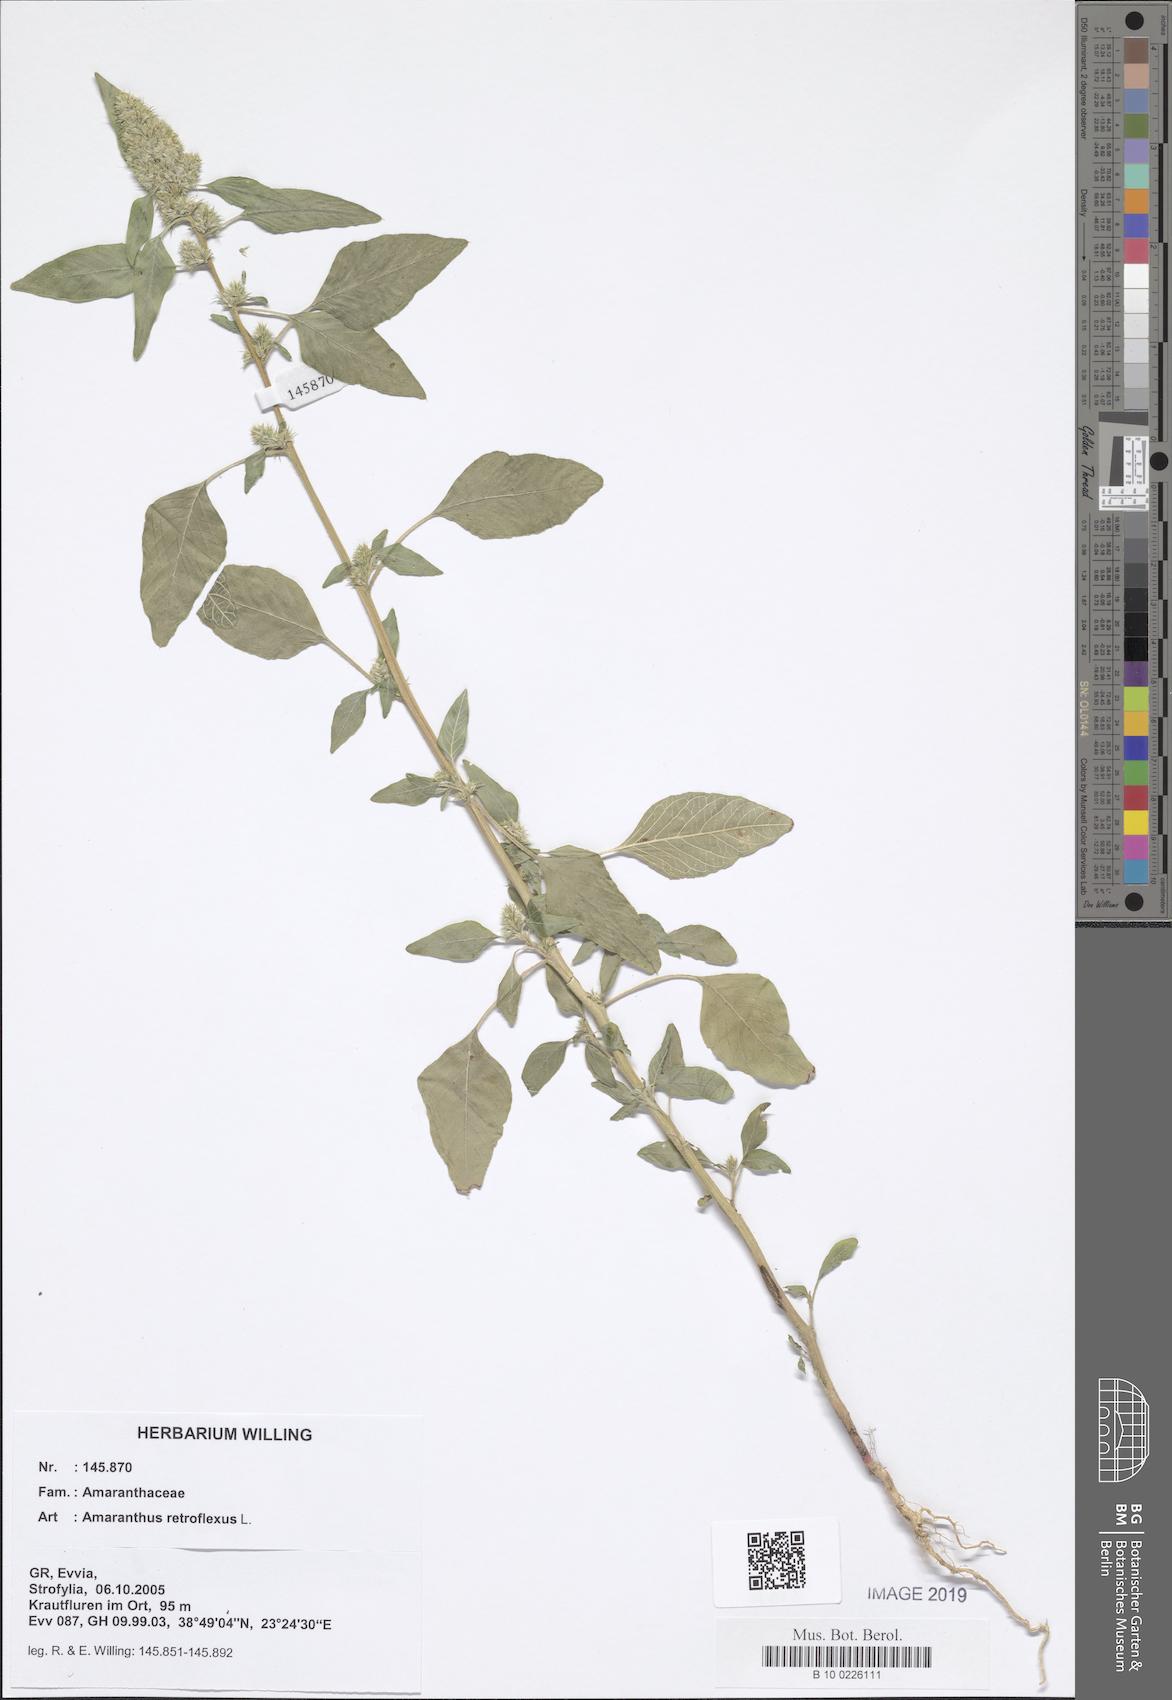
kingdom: Plantae
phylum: Tracheophyta
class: Magnoliopsida
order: Caryophyllales
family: Amaranthaceae
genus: Amaranthus
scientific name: Amaranthus retroflexus
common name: Redroot amaranth
